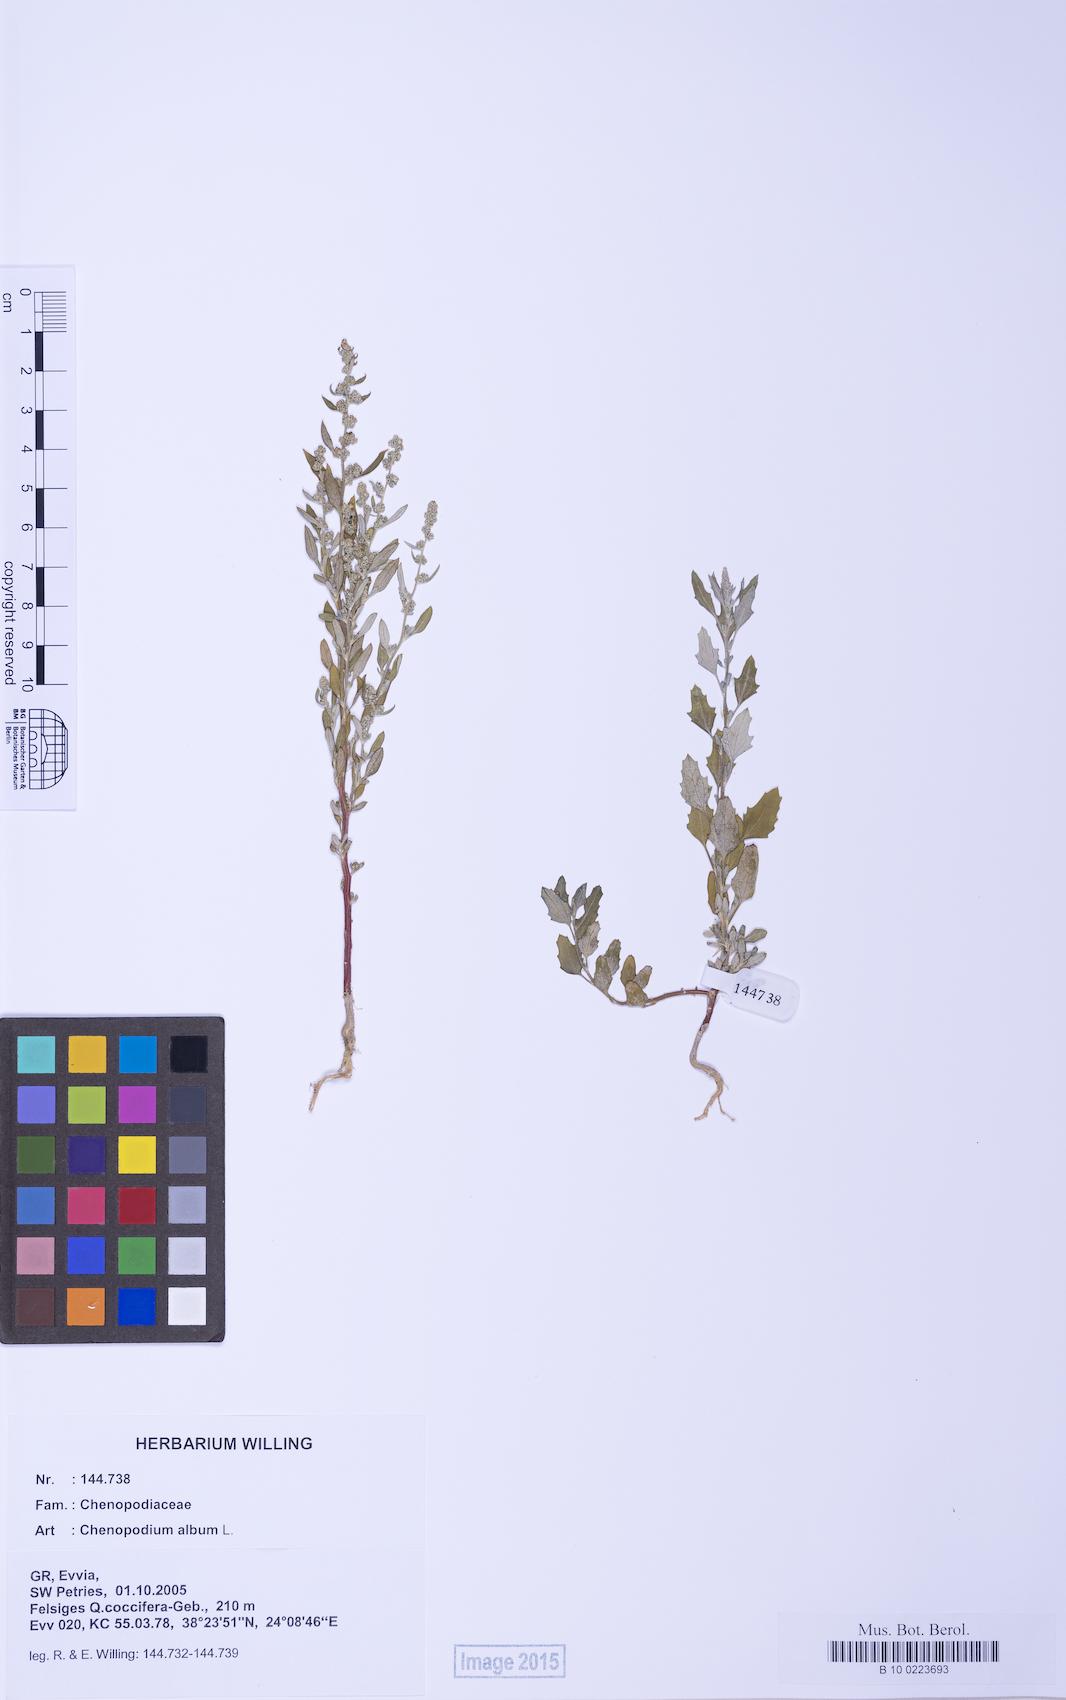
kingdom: Plantae
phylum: Tracheophyta
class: Magnoliopsida
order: Caryophyllales
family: Amaranthaceae
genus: Chenopodium
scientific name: Chenopodium album
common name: Fat-hen
